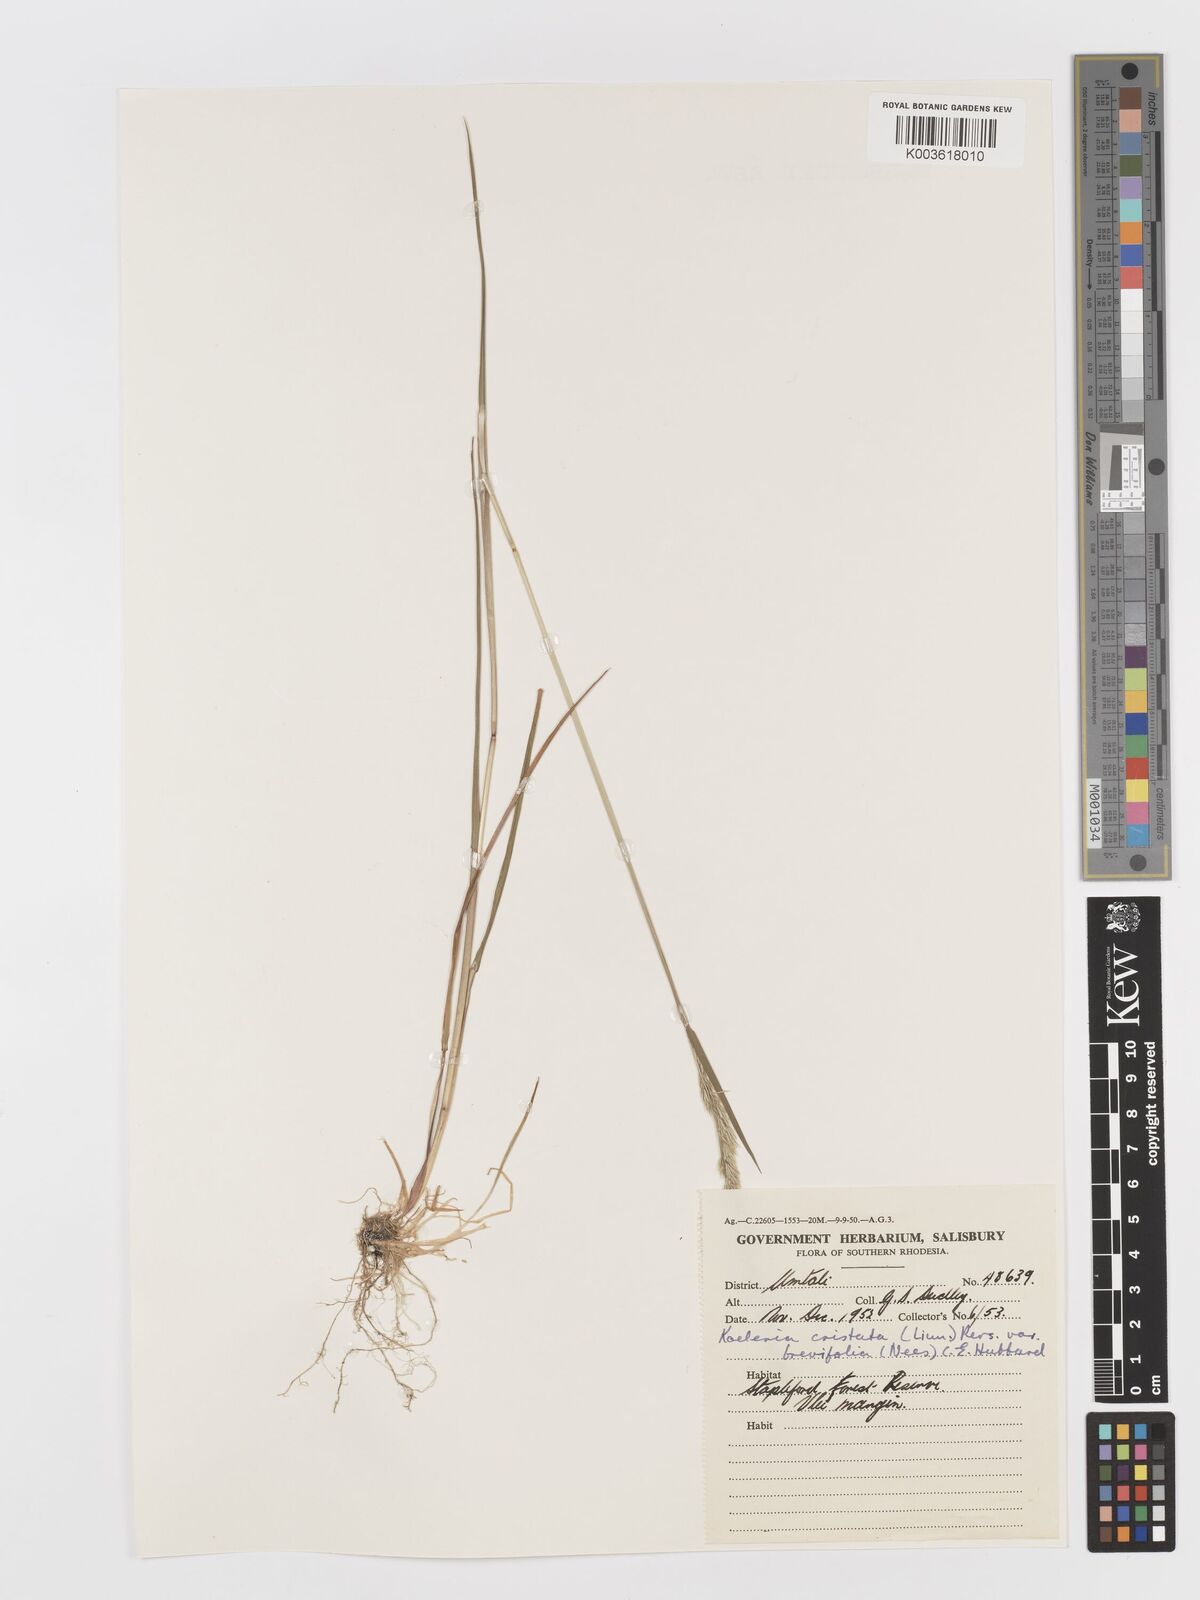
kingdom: Plantae
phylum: Tracheophyta
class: Liliopsida
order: Poales
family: Poaceae
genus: Koeleria
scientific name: Koeleria capensis
